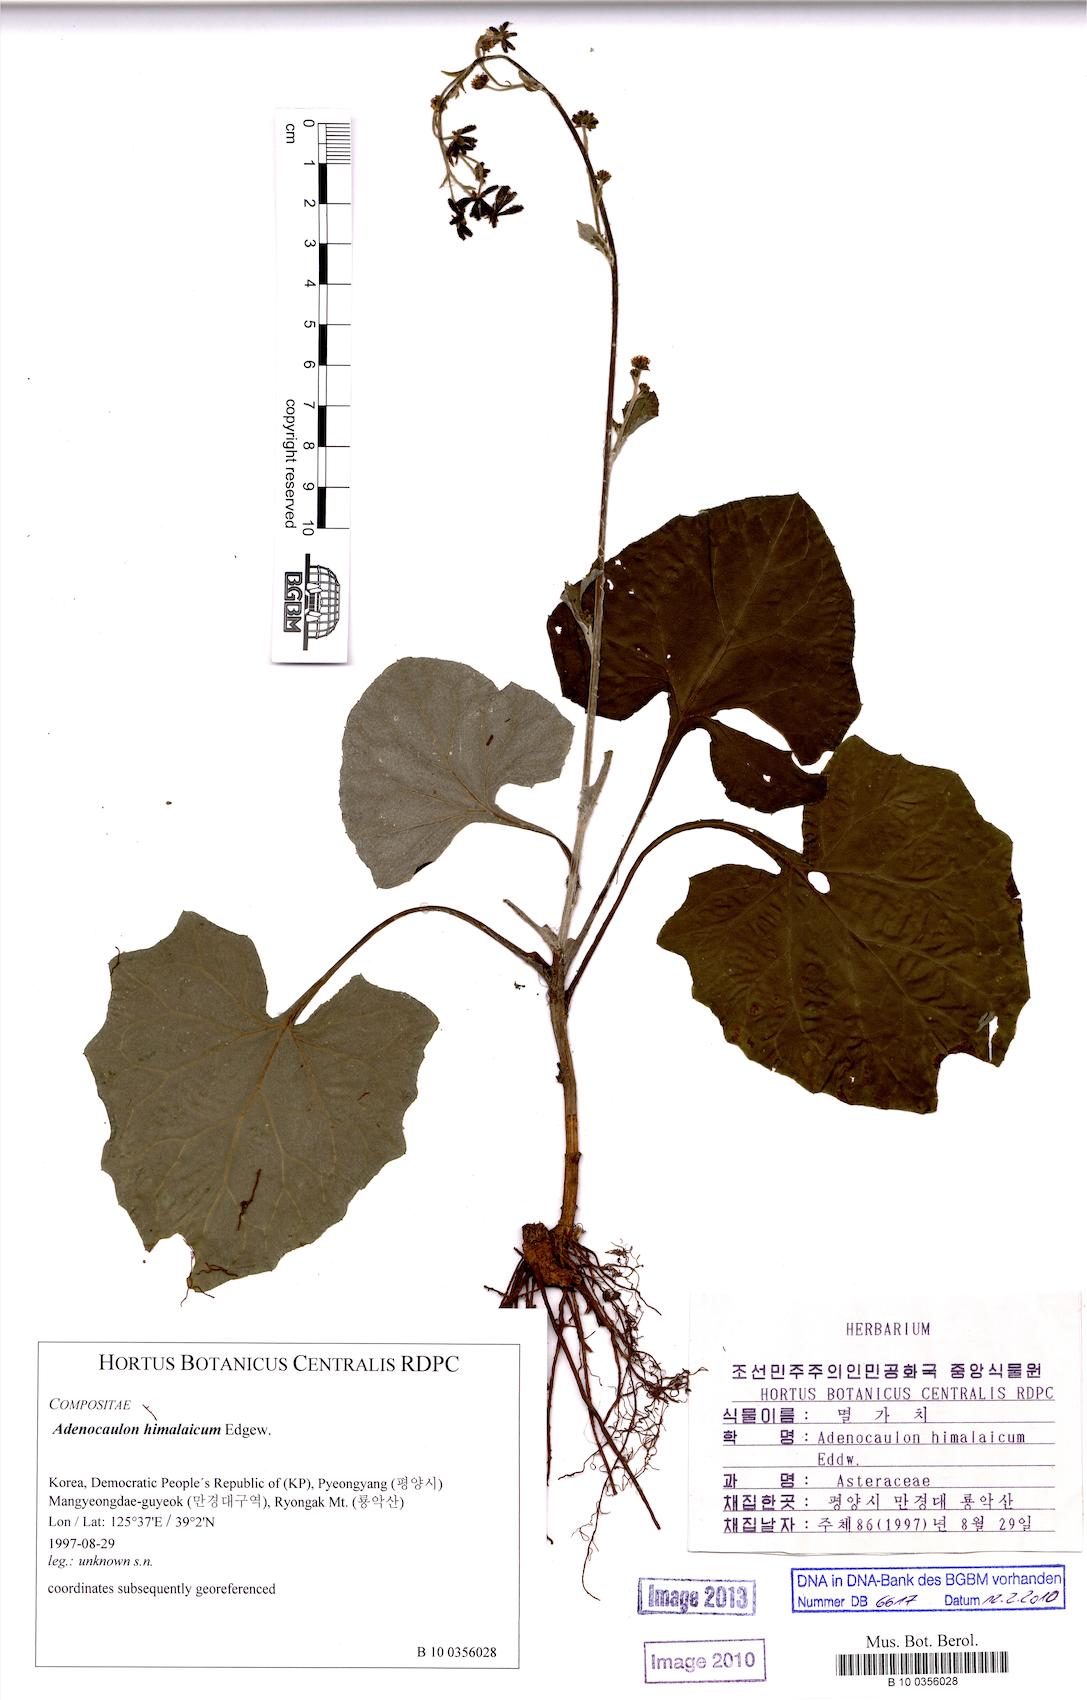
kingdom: Plantae
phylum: Tracheophyta
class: Magnoliopsida
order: Asterales
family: Asteraceae
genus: Adenocaulon
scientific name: Adenocaulon himalaicum
